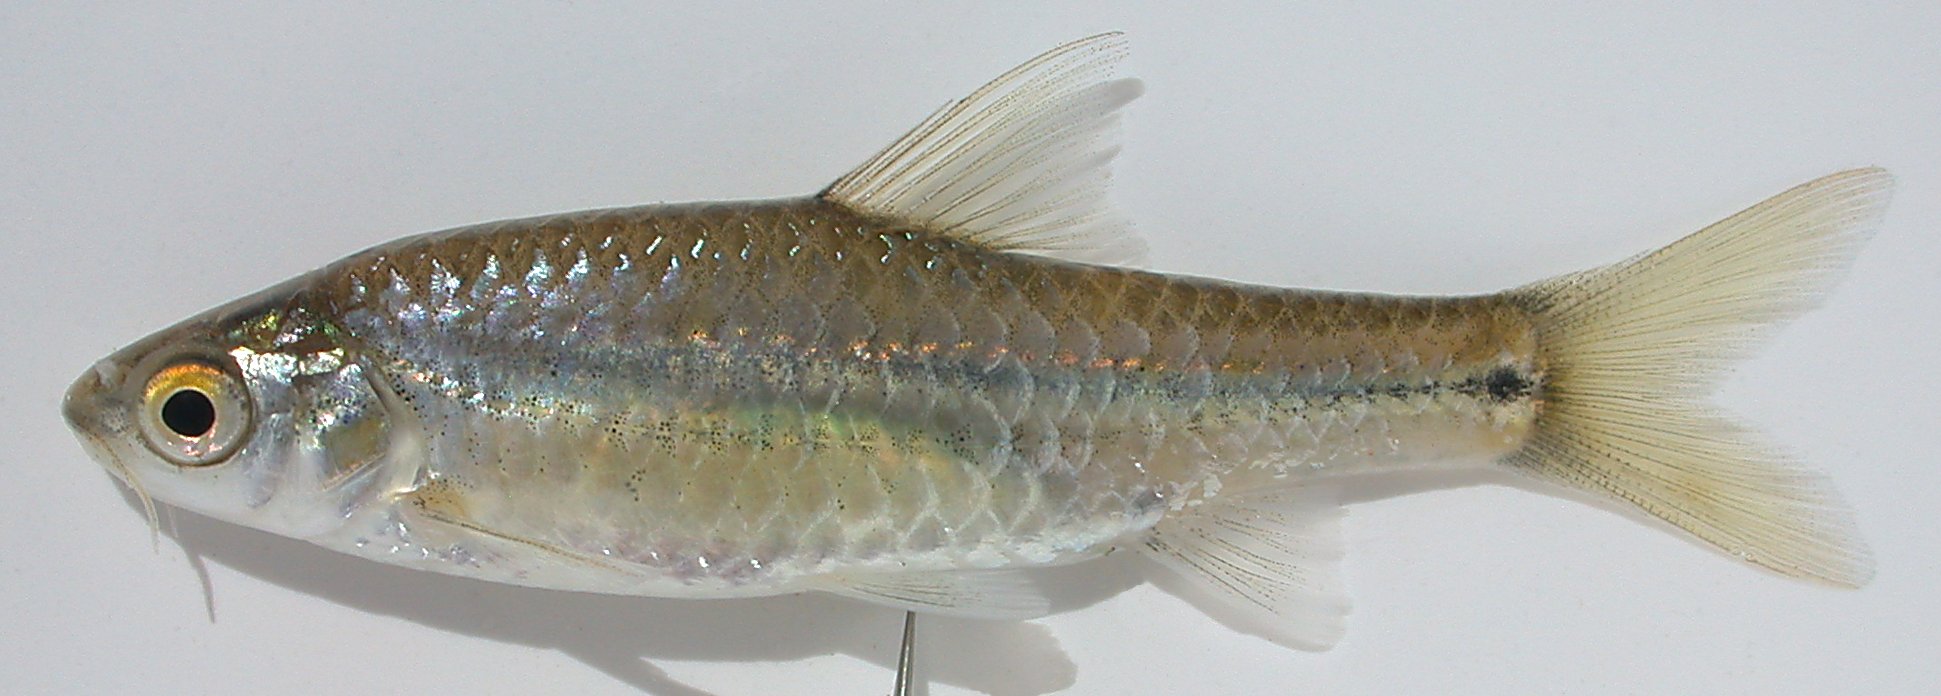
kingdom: Animalia
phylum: Chordata
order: Cypriniformes
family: Cyprinidae
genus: Enteromius
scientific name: Enteromius viviparus
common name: Bowstripe barb
